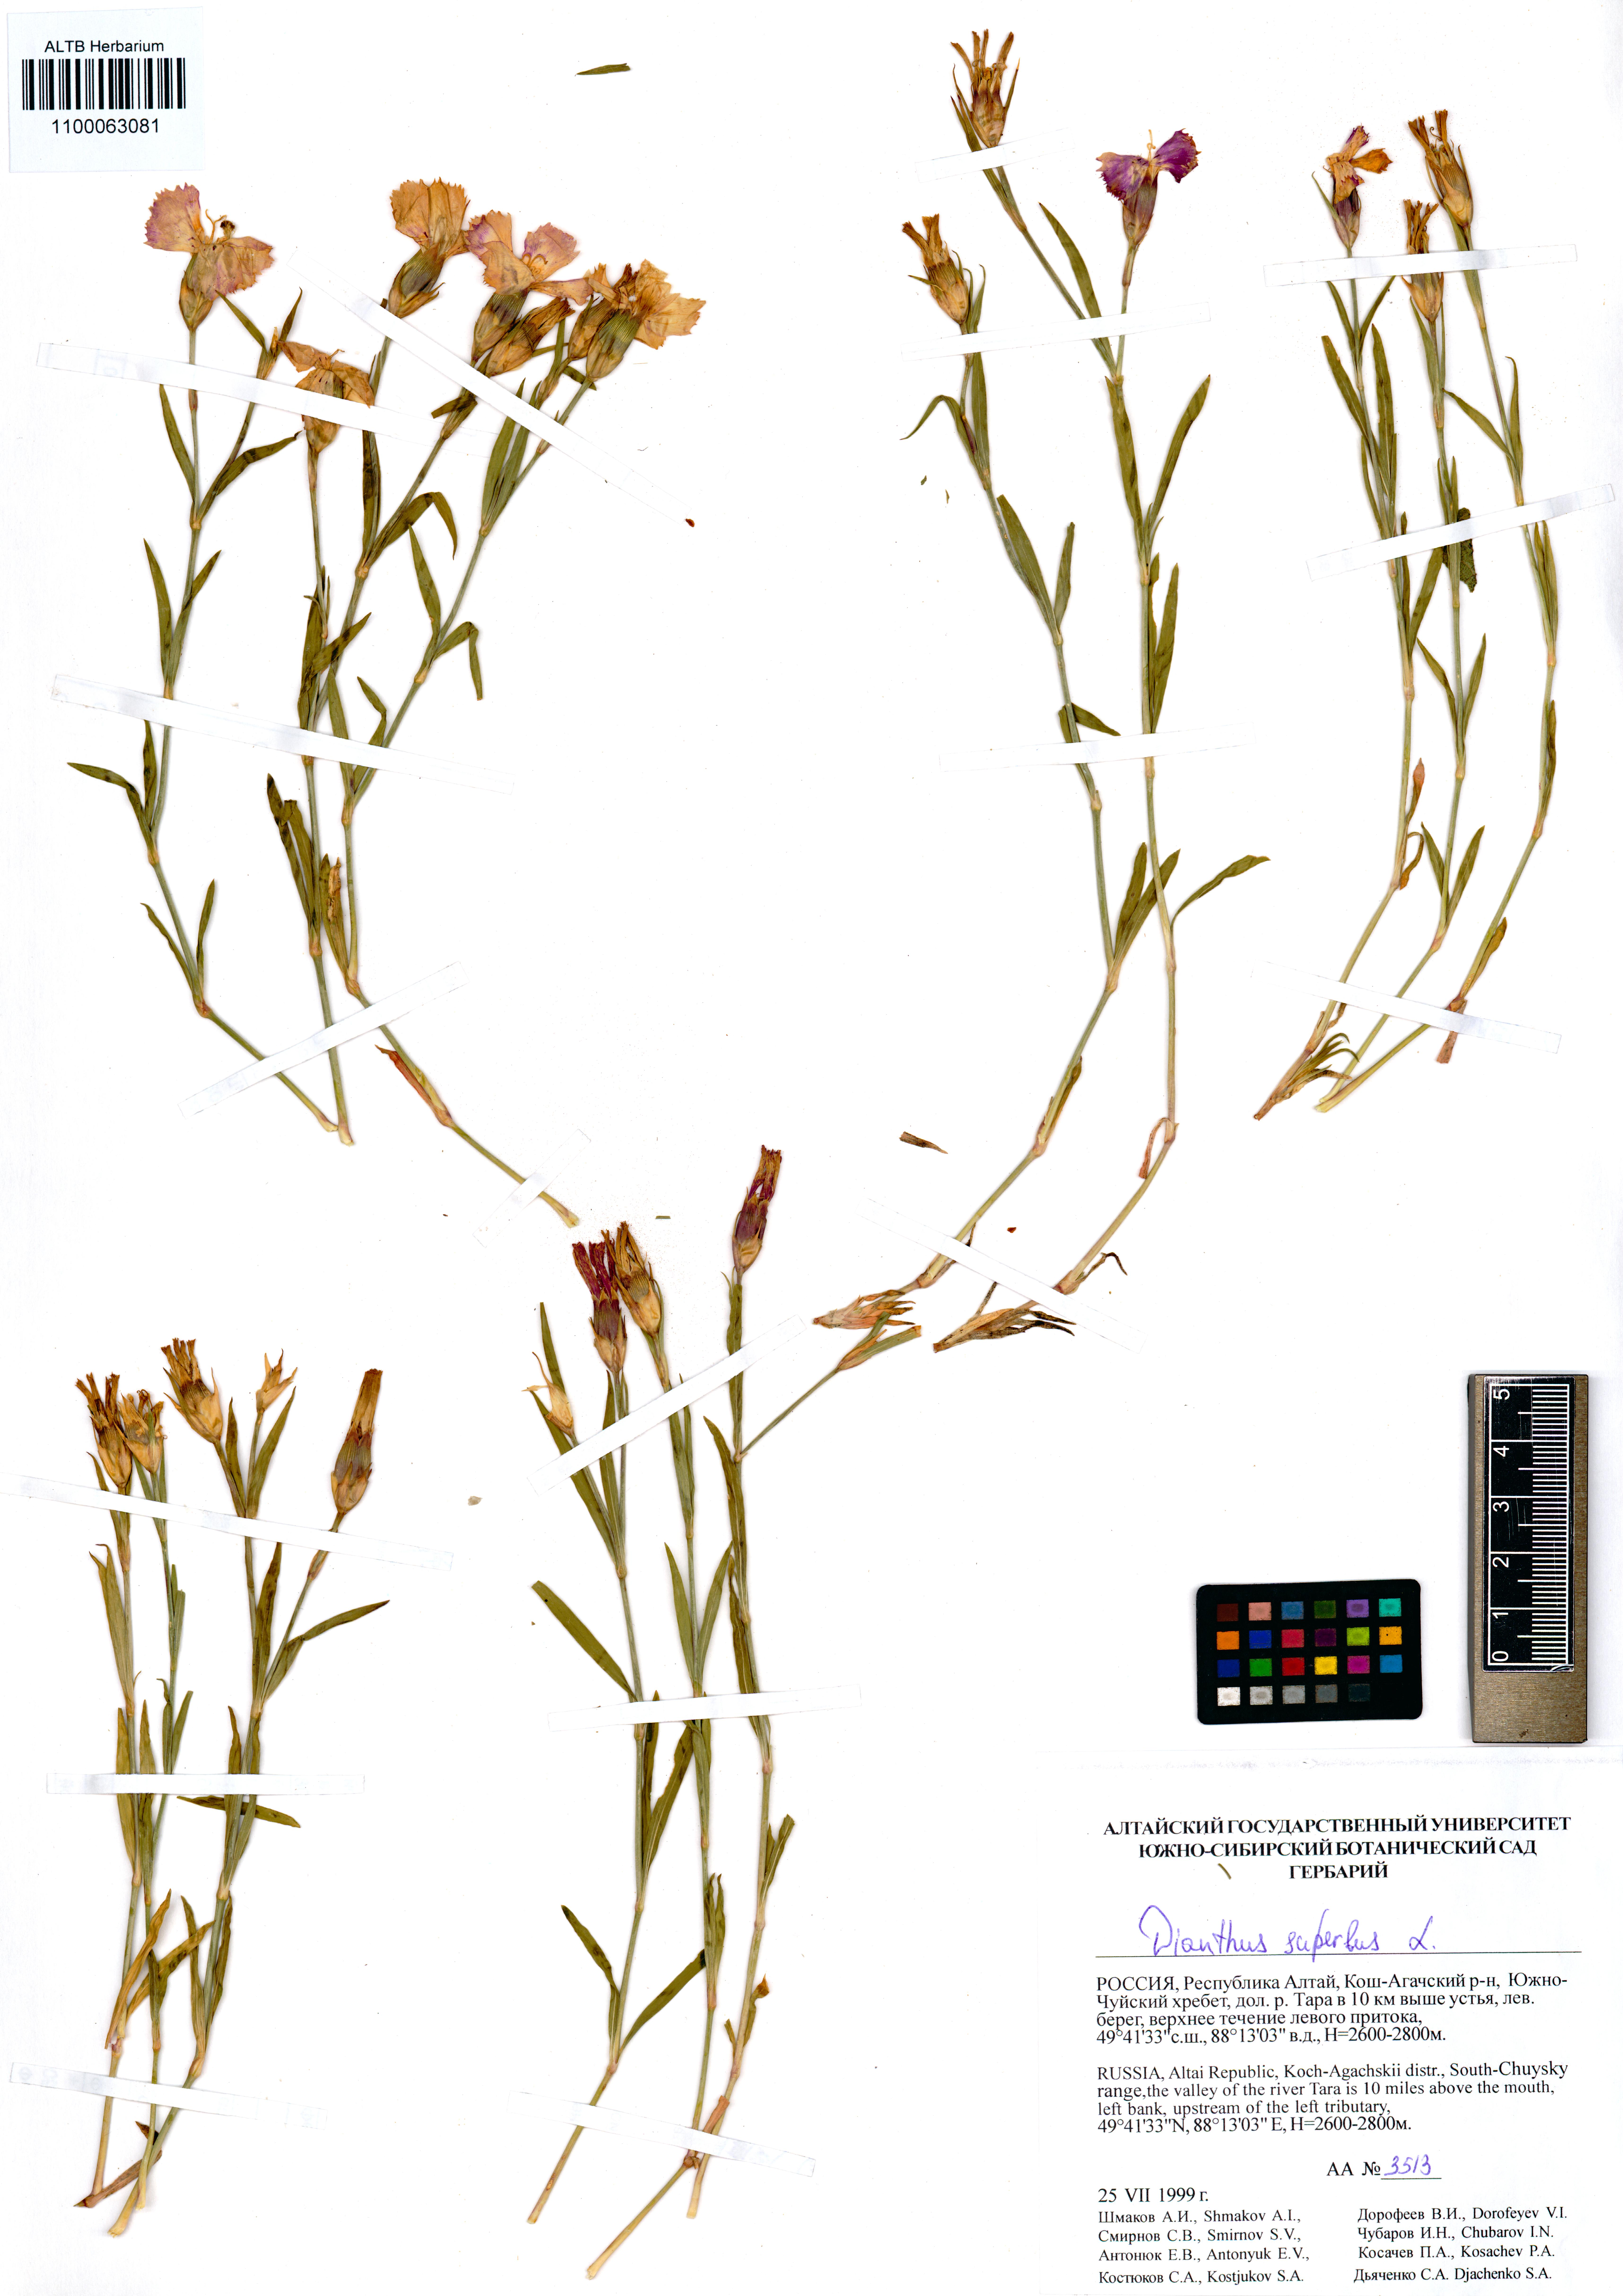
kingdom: Plantae
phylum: Tracheophyta
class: Magnoliopsida
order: Caryophyllales
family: Caryophyllaceae
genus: Dianthus
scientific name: Dianthus superbus
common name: Fringed pink
